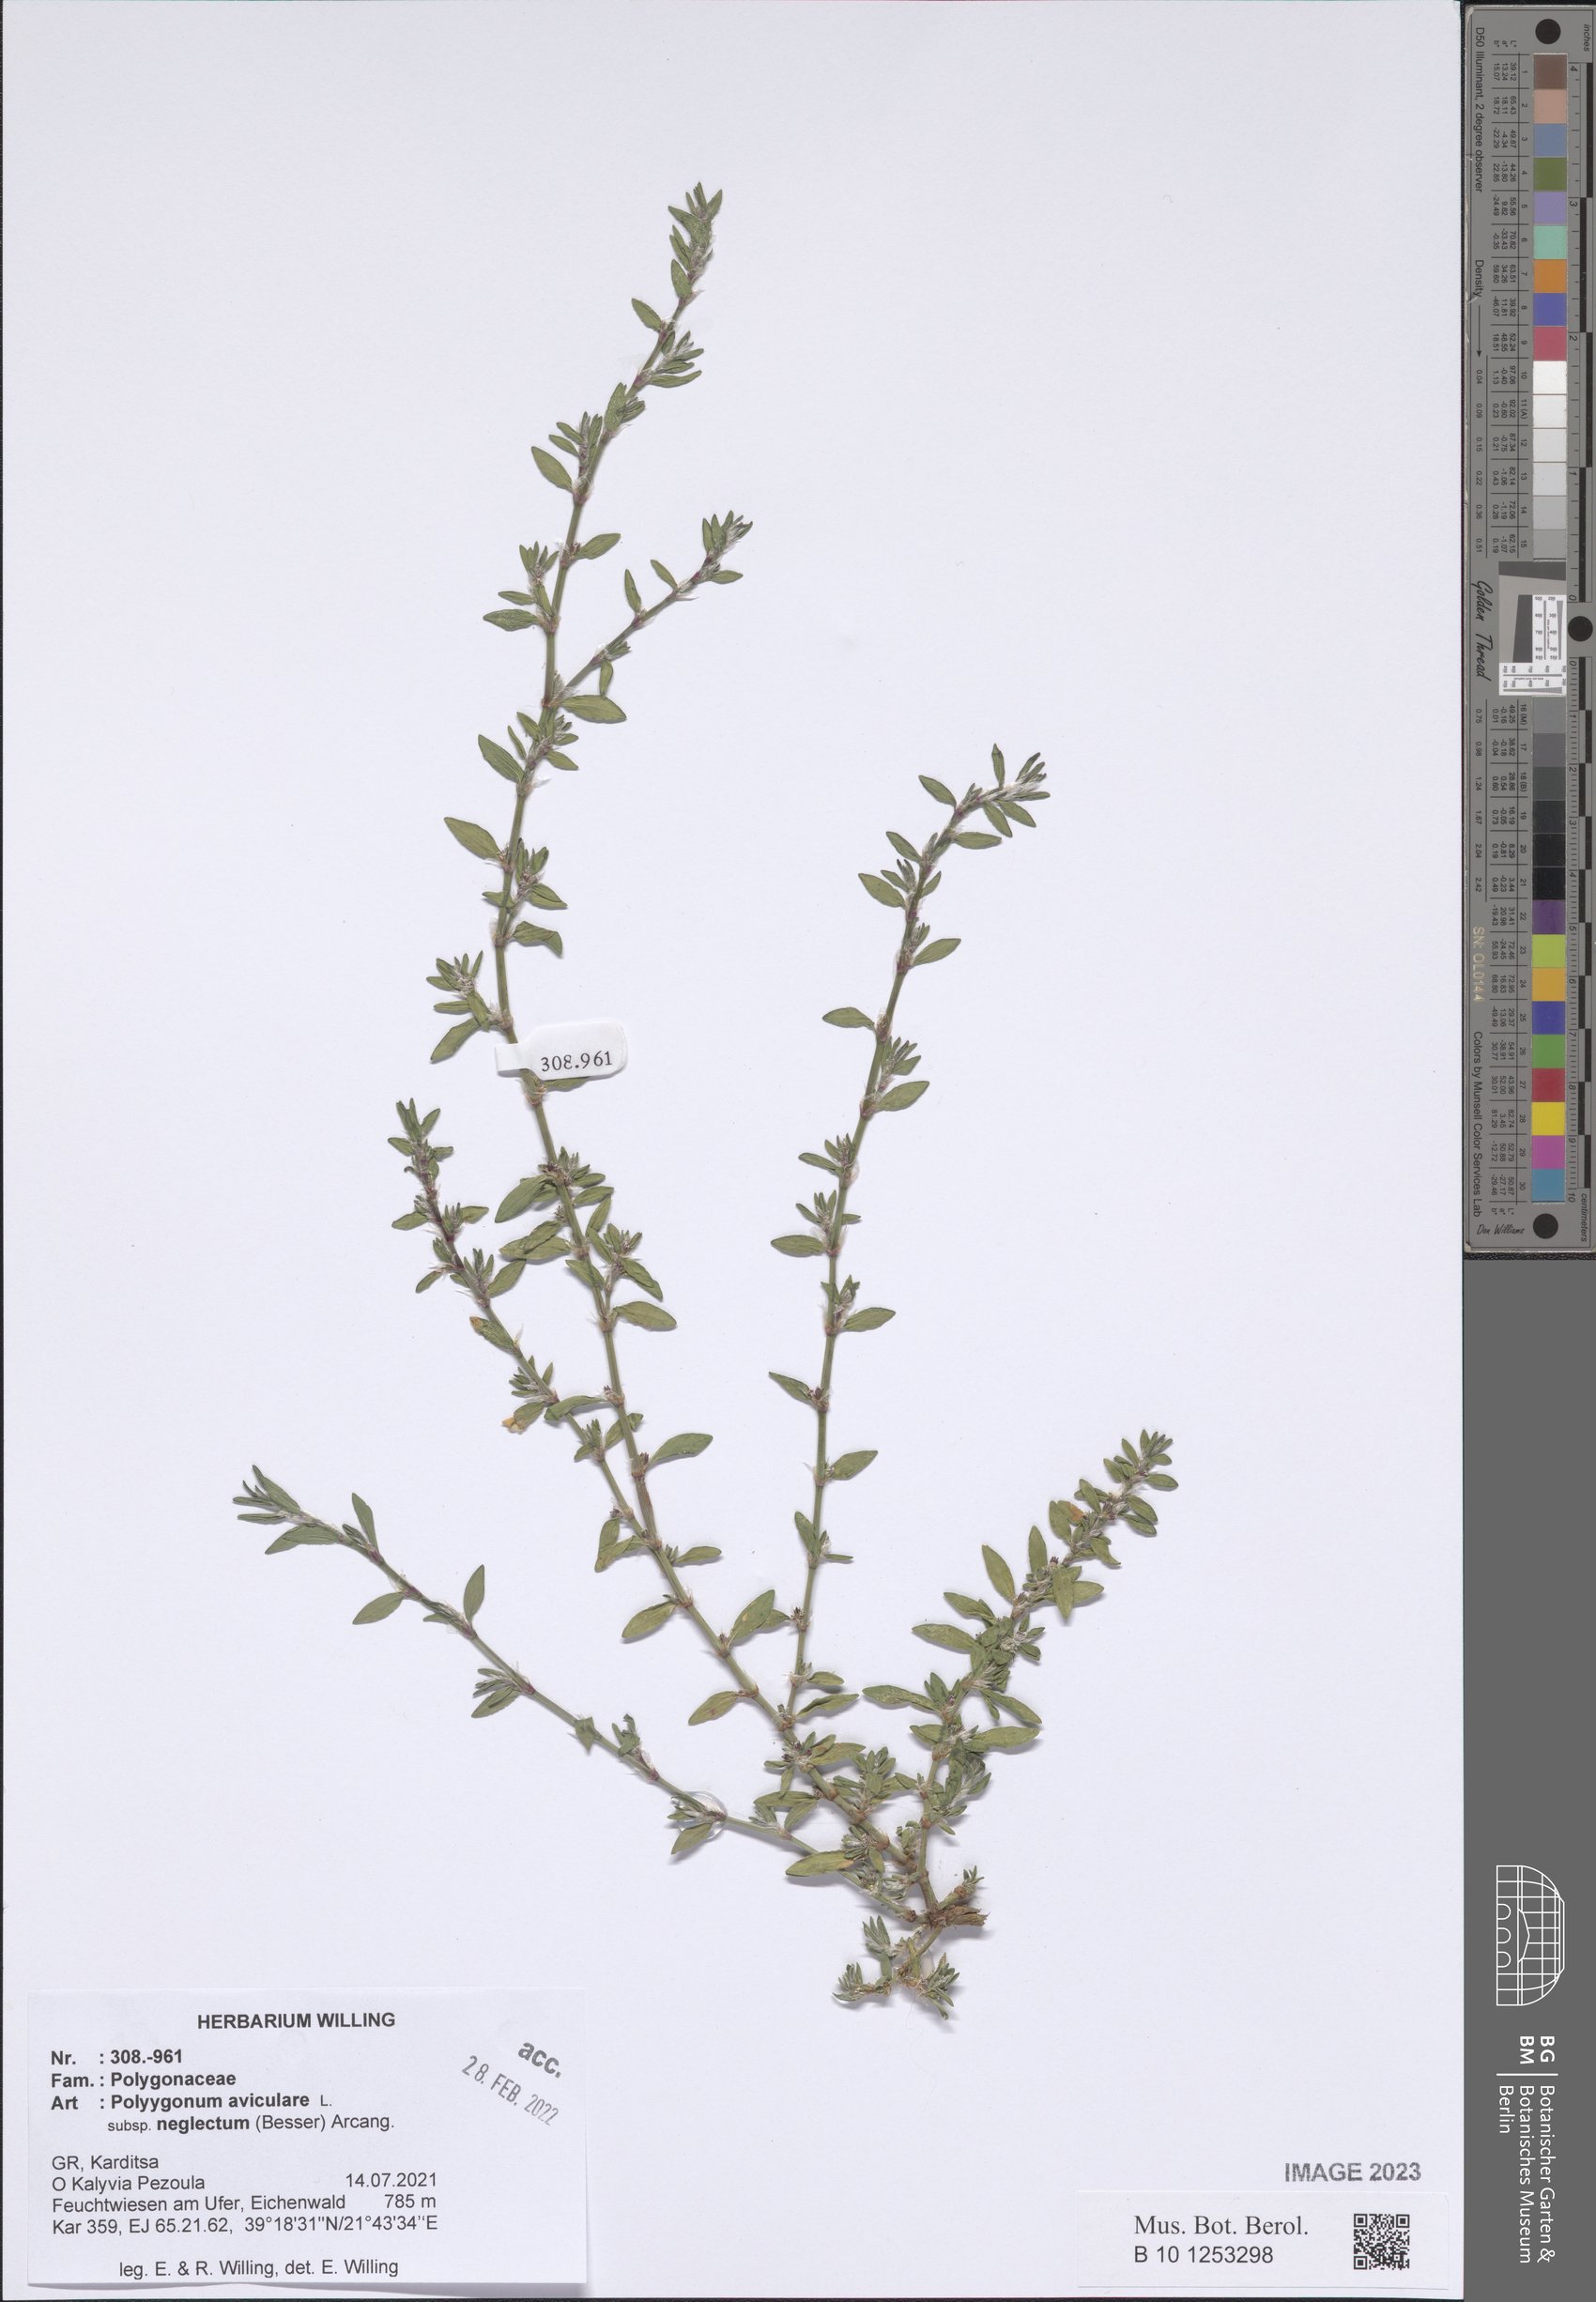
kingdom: Plantae
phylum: Tracheophyta
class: Magnoliopsida
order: Caryophyllales
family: Polygonaceae
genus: Polygonum
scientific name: Polygonum aviculare
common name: Prostrate knotweed
